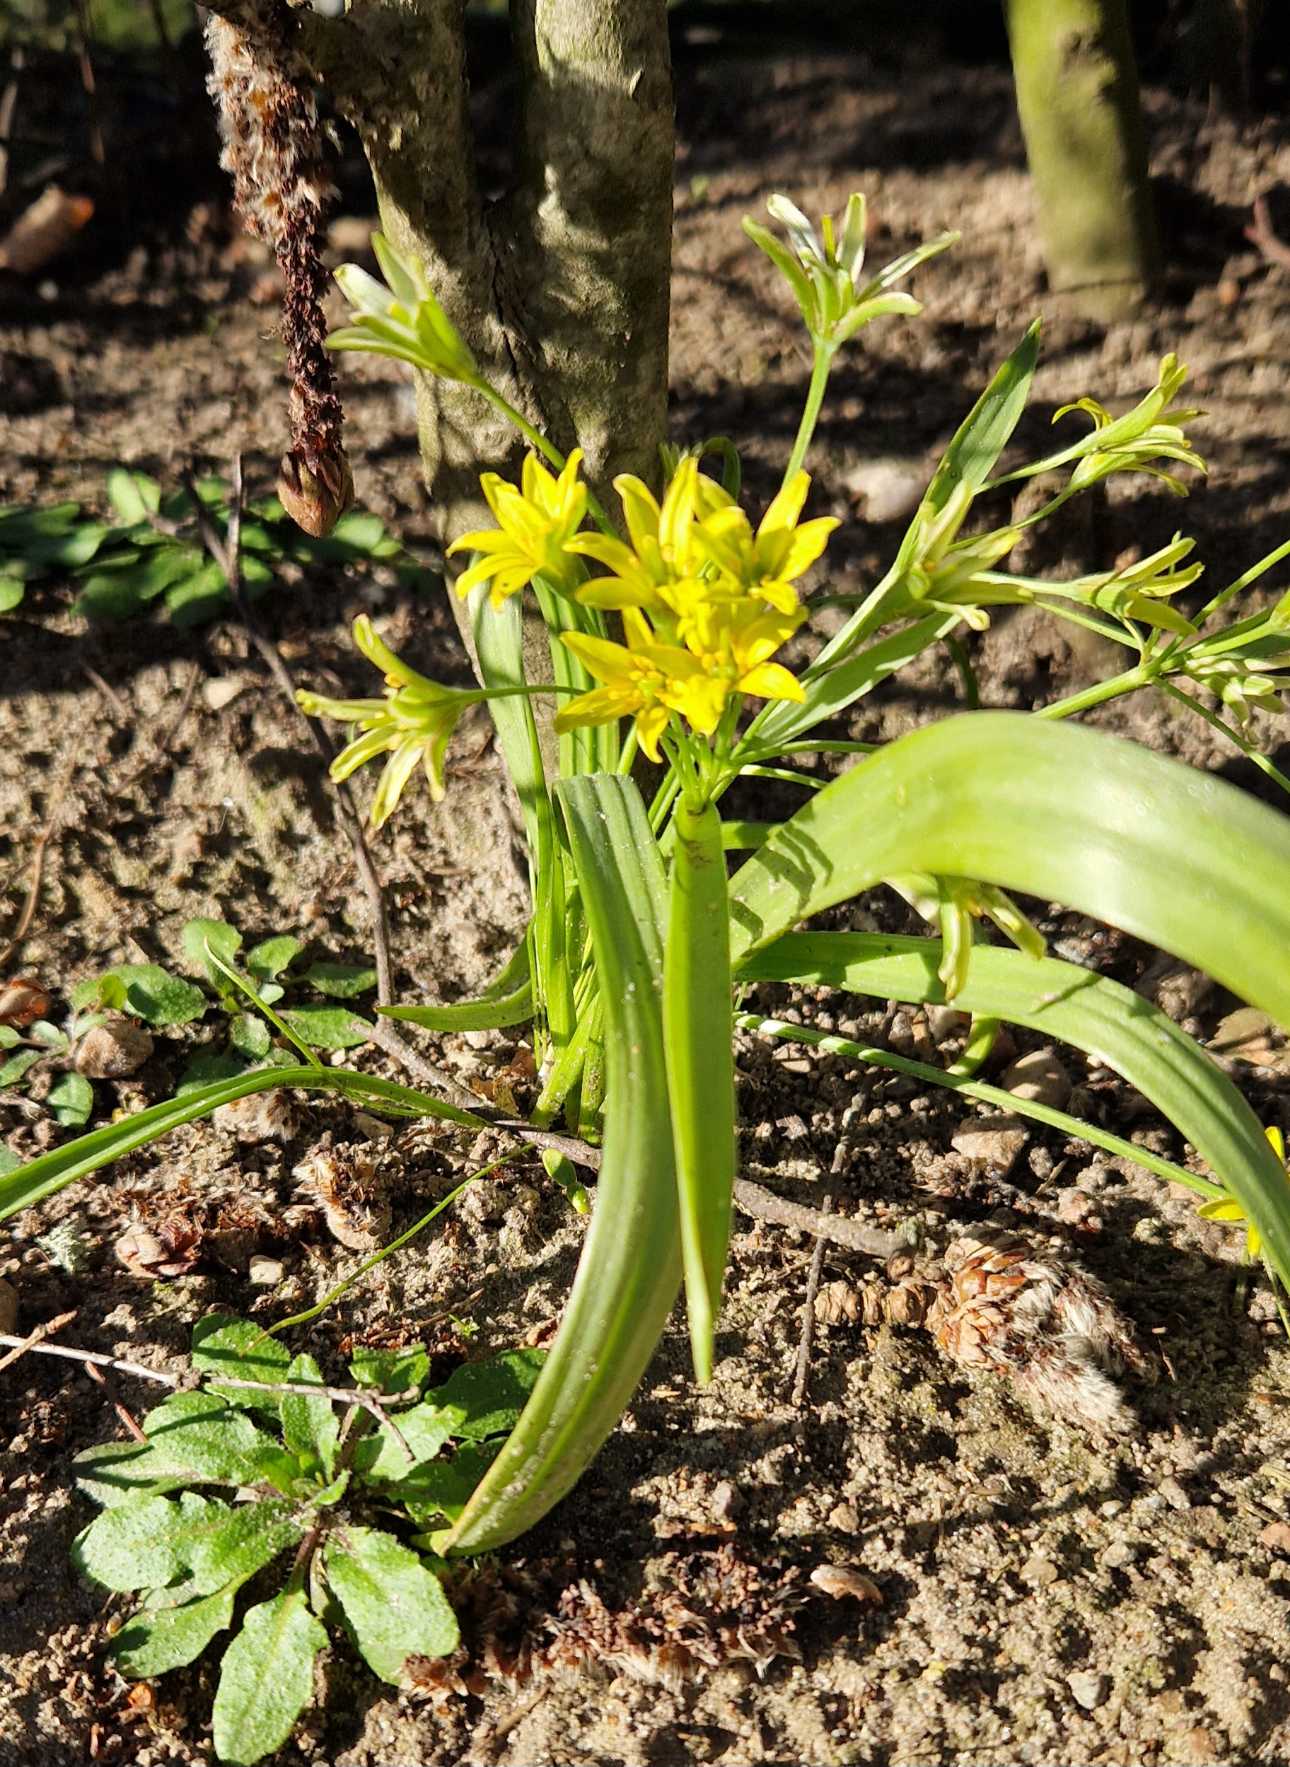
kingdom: Plantae
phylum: Tracheophyta
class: Liliopsida
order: Liliales
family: Liliaceae
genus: Gagea
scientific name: Gagea lutea
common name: Almindelig guldstjerne
